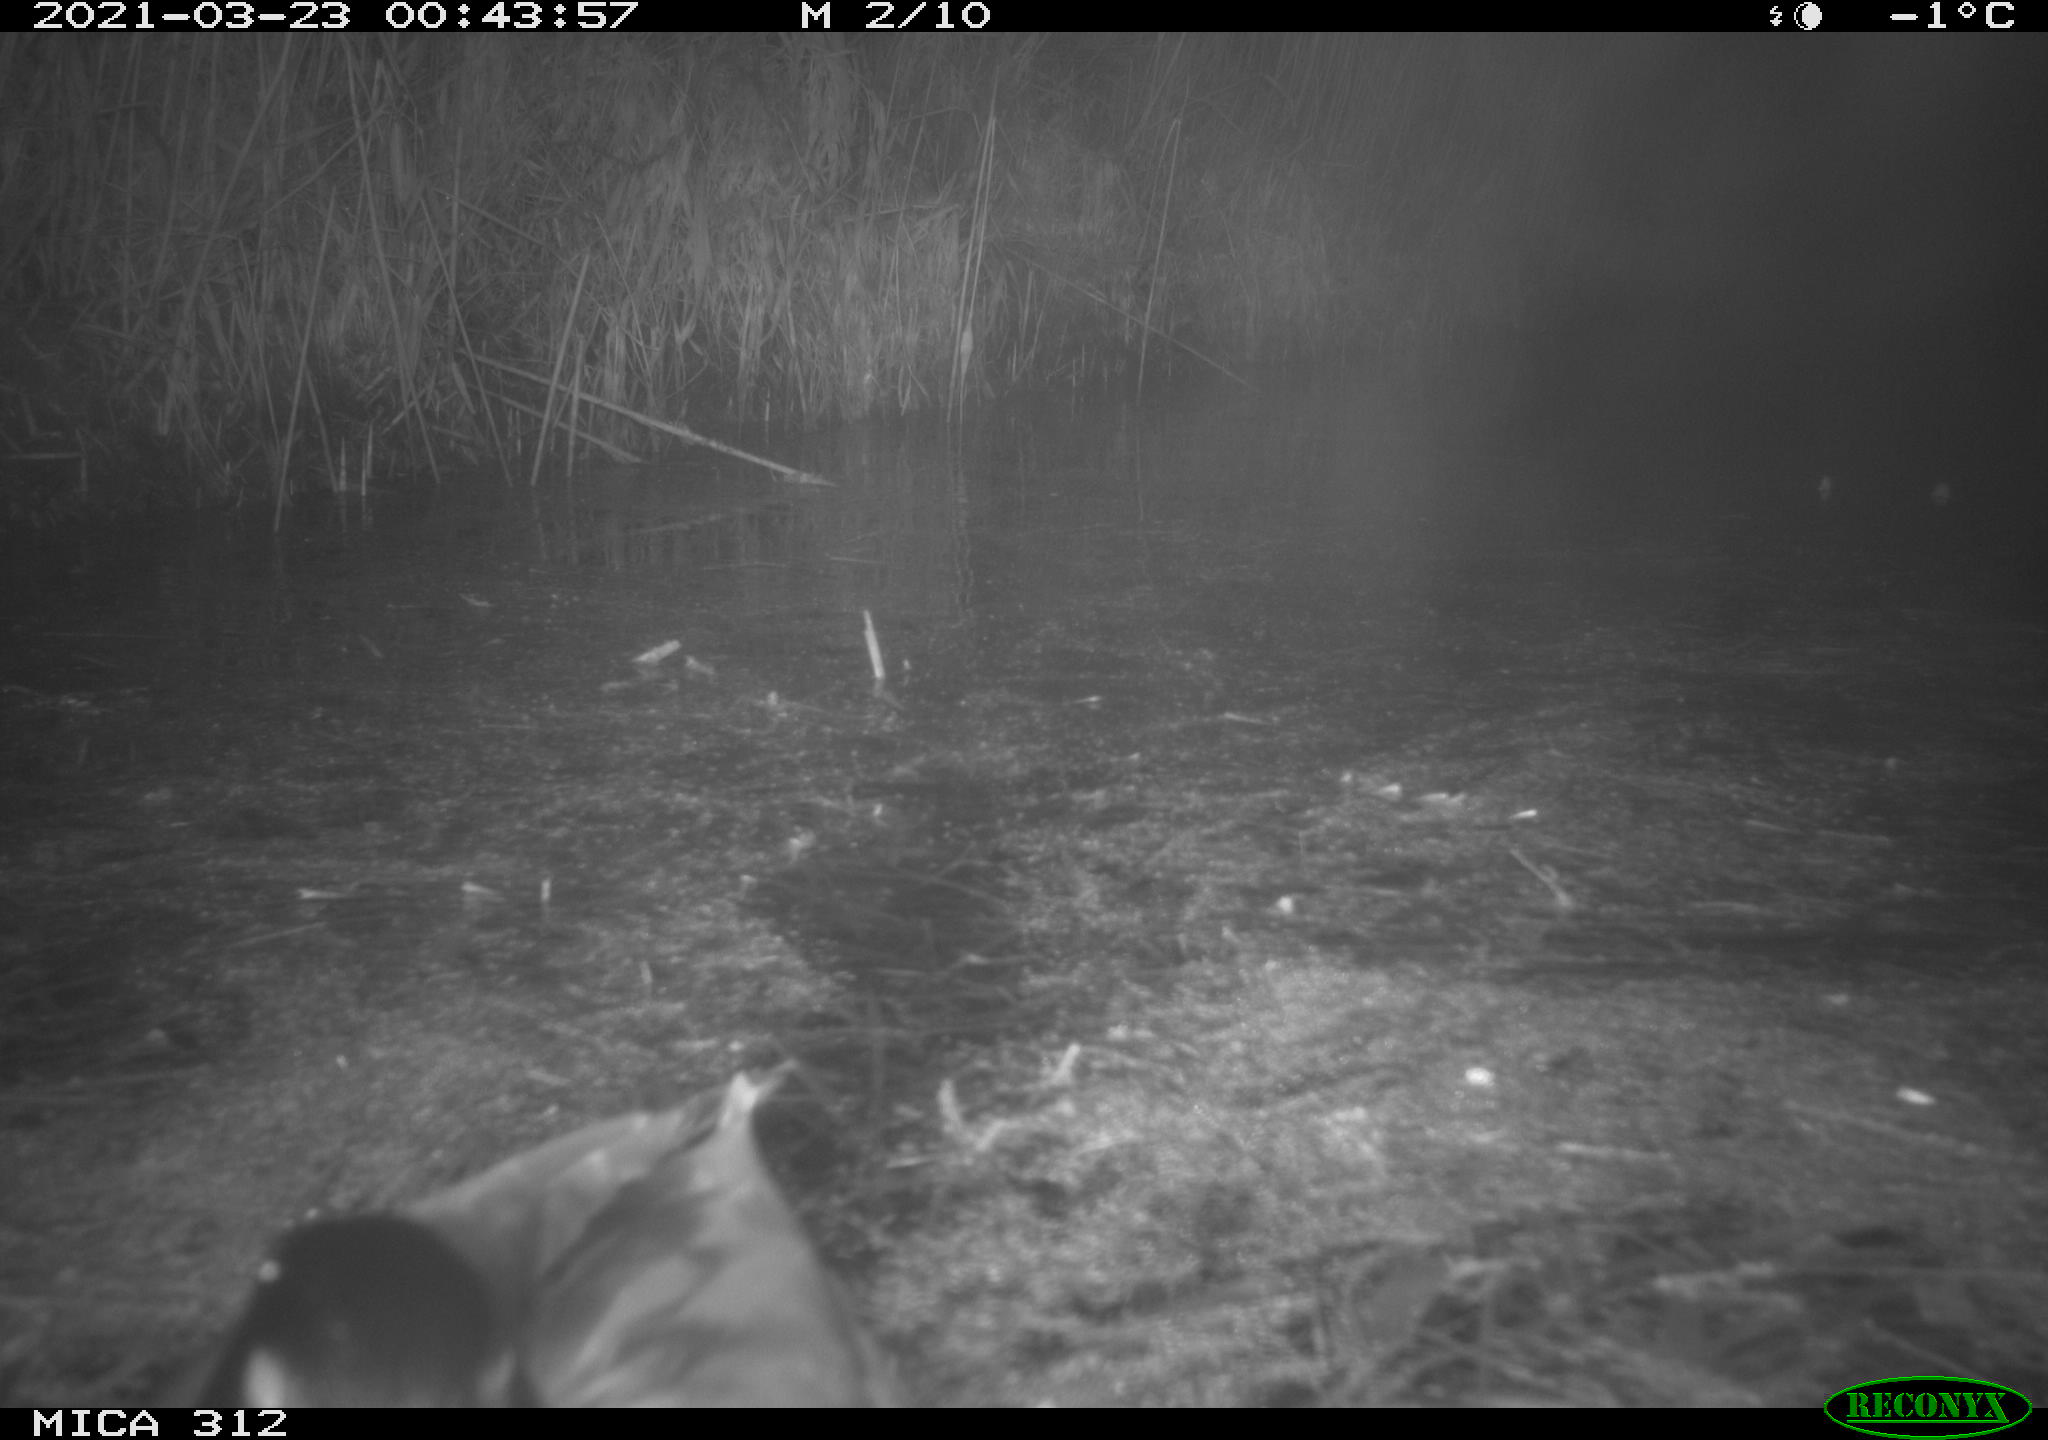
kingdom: Animalia
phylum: Chordata
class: Aves
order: Anseriformes
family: Anatidae
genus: Anas
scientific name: Anas platyrhynchos
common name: Mallard
